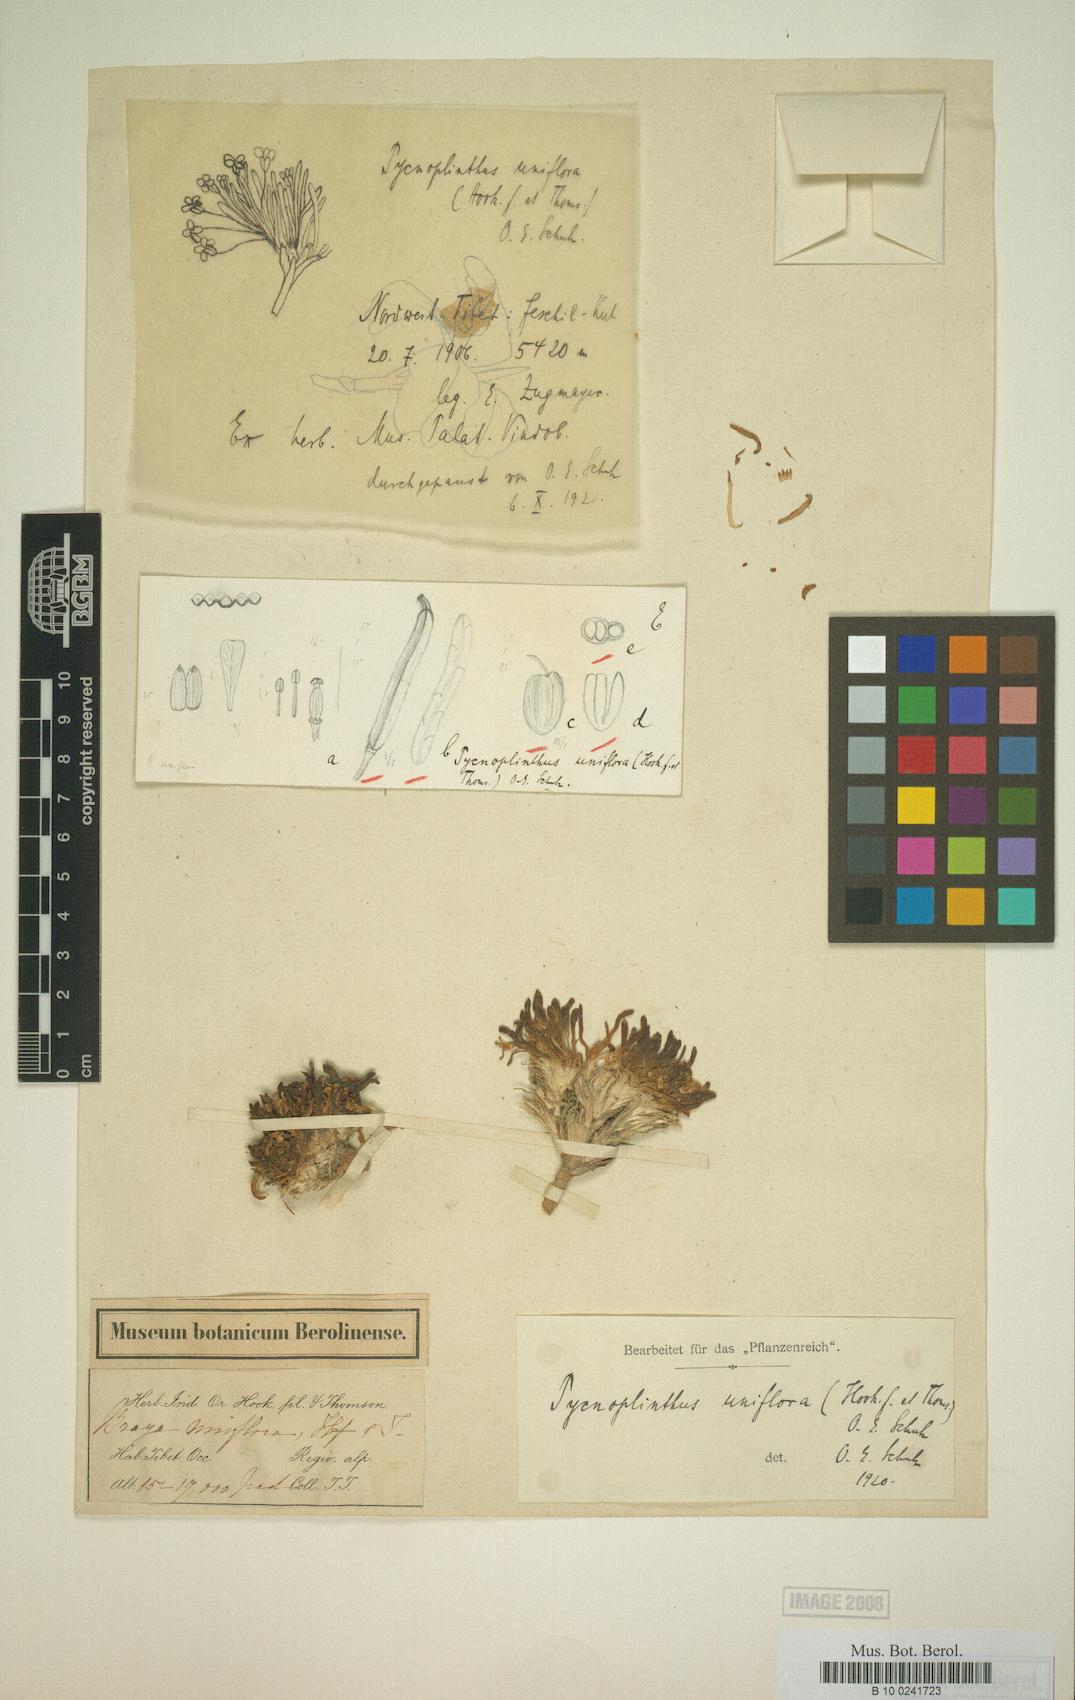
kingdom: Plantae
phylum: Tracheophyta
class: Magnoliopsida
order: Brassicales
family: Brassicaceae
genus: Pycnoplinthus
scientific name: Pycnoplinthus uniflora
